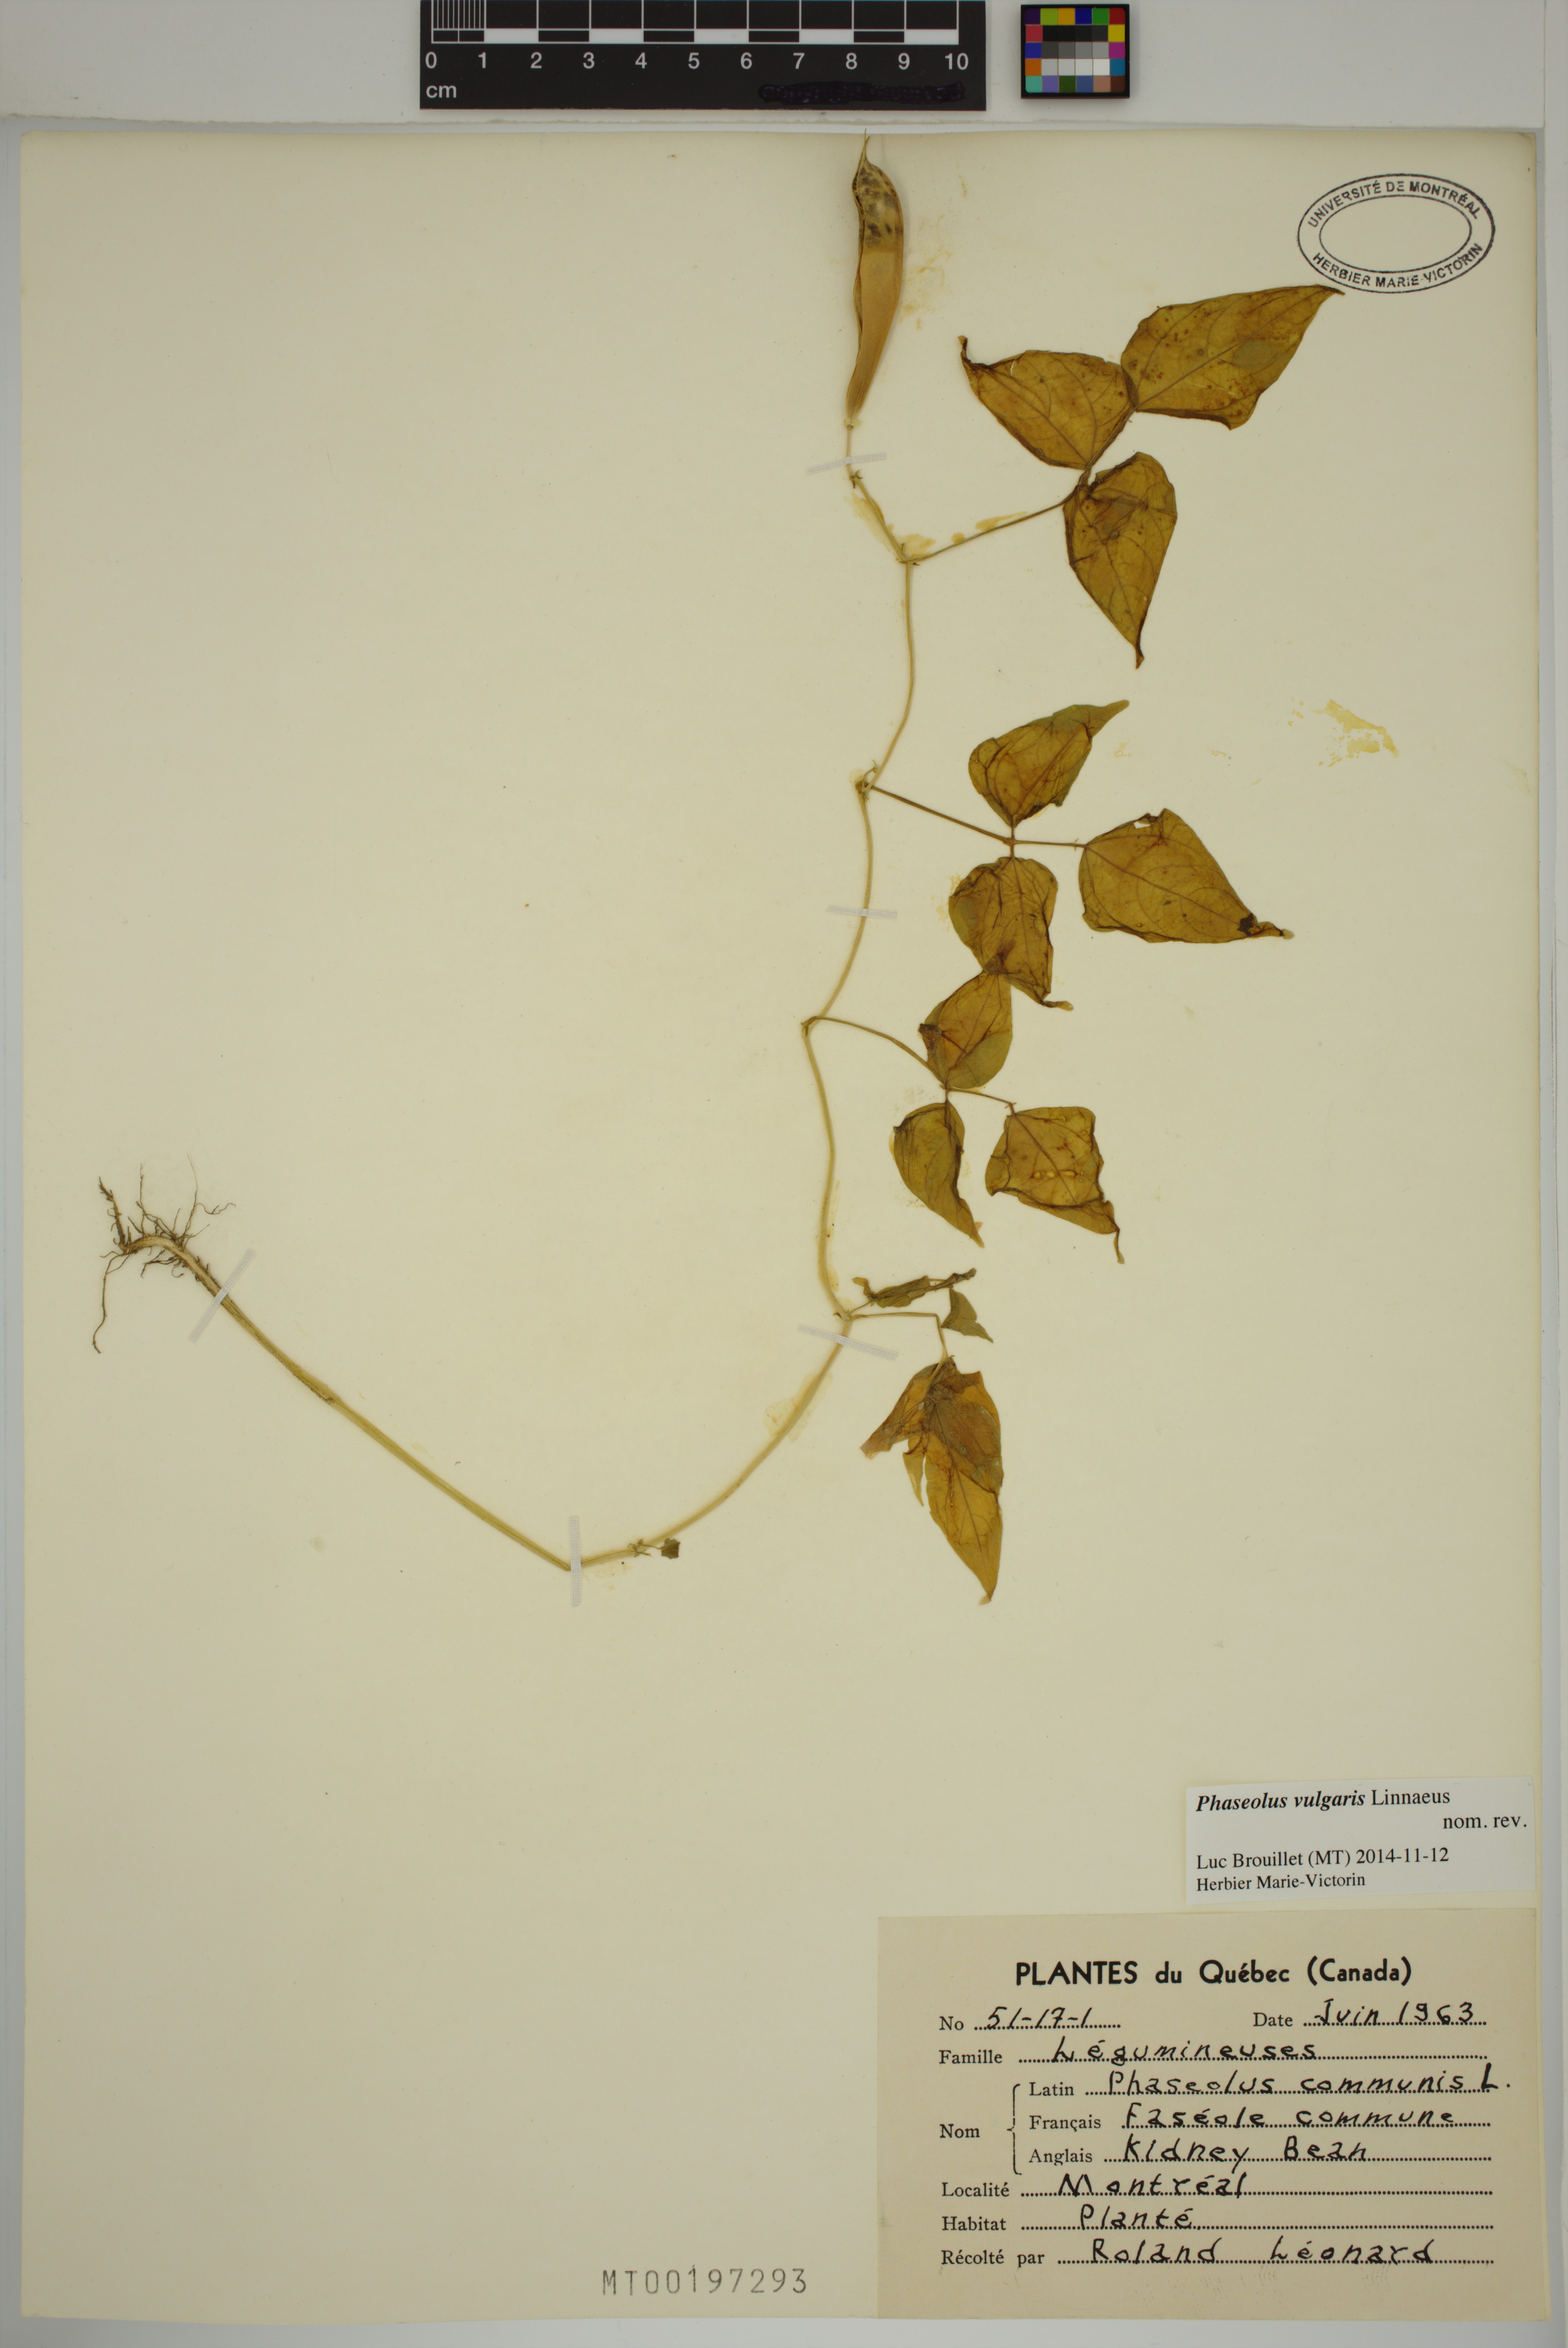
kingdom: Plantae
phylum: Tracheophyta
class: Magnoliopsida
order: Fabales
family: Fabaceae
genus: Phaseolus
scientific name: Phaseolus vulgaris
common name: Bean
